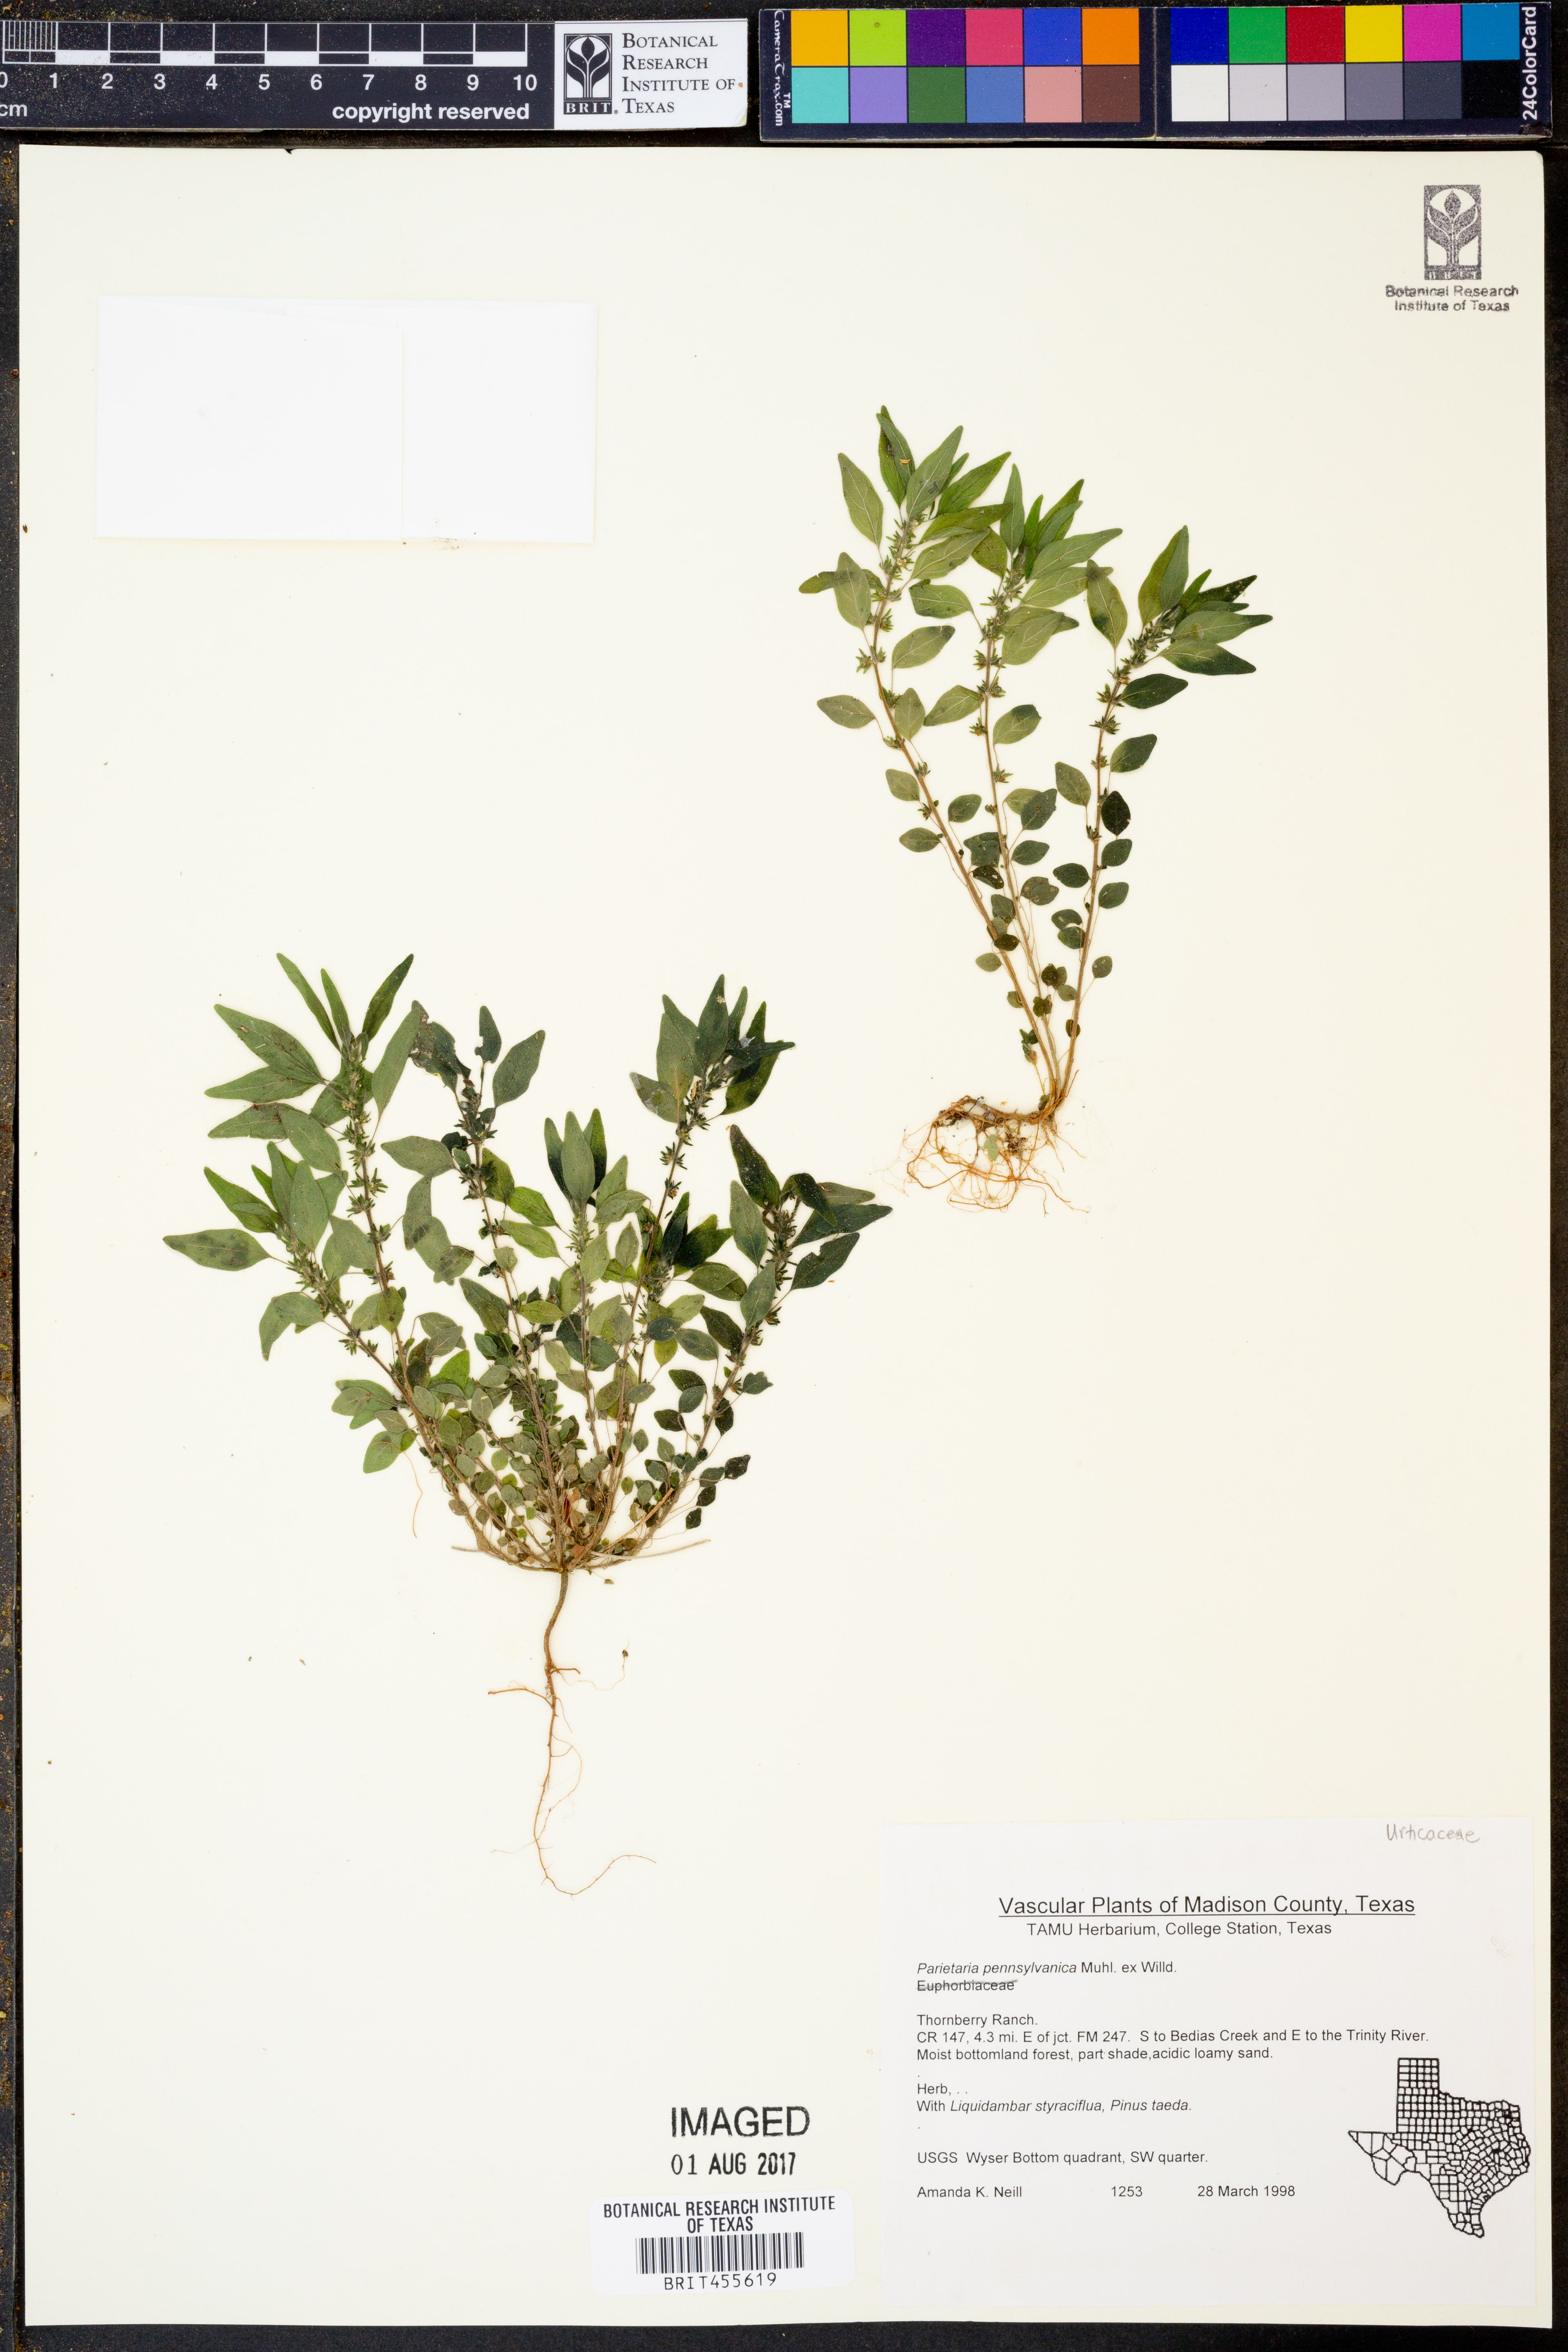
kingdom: Plantae
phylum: Tracheophyta
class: Magnoliopsida
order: Rosales
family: Urticaceae
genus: Parietaria
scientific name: Parietaria pensylvanica
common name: Pennsylvania pellitory
